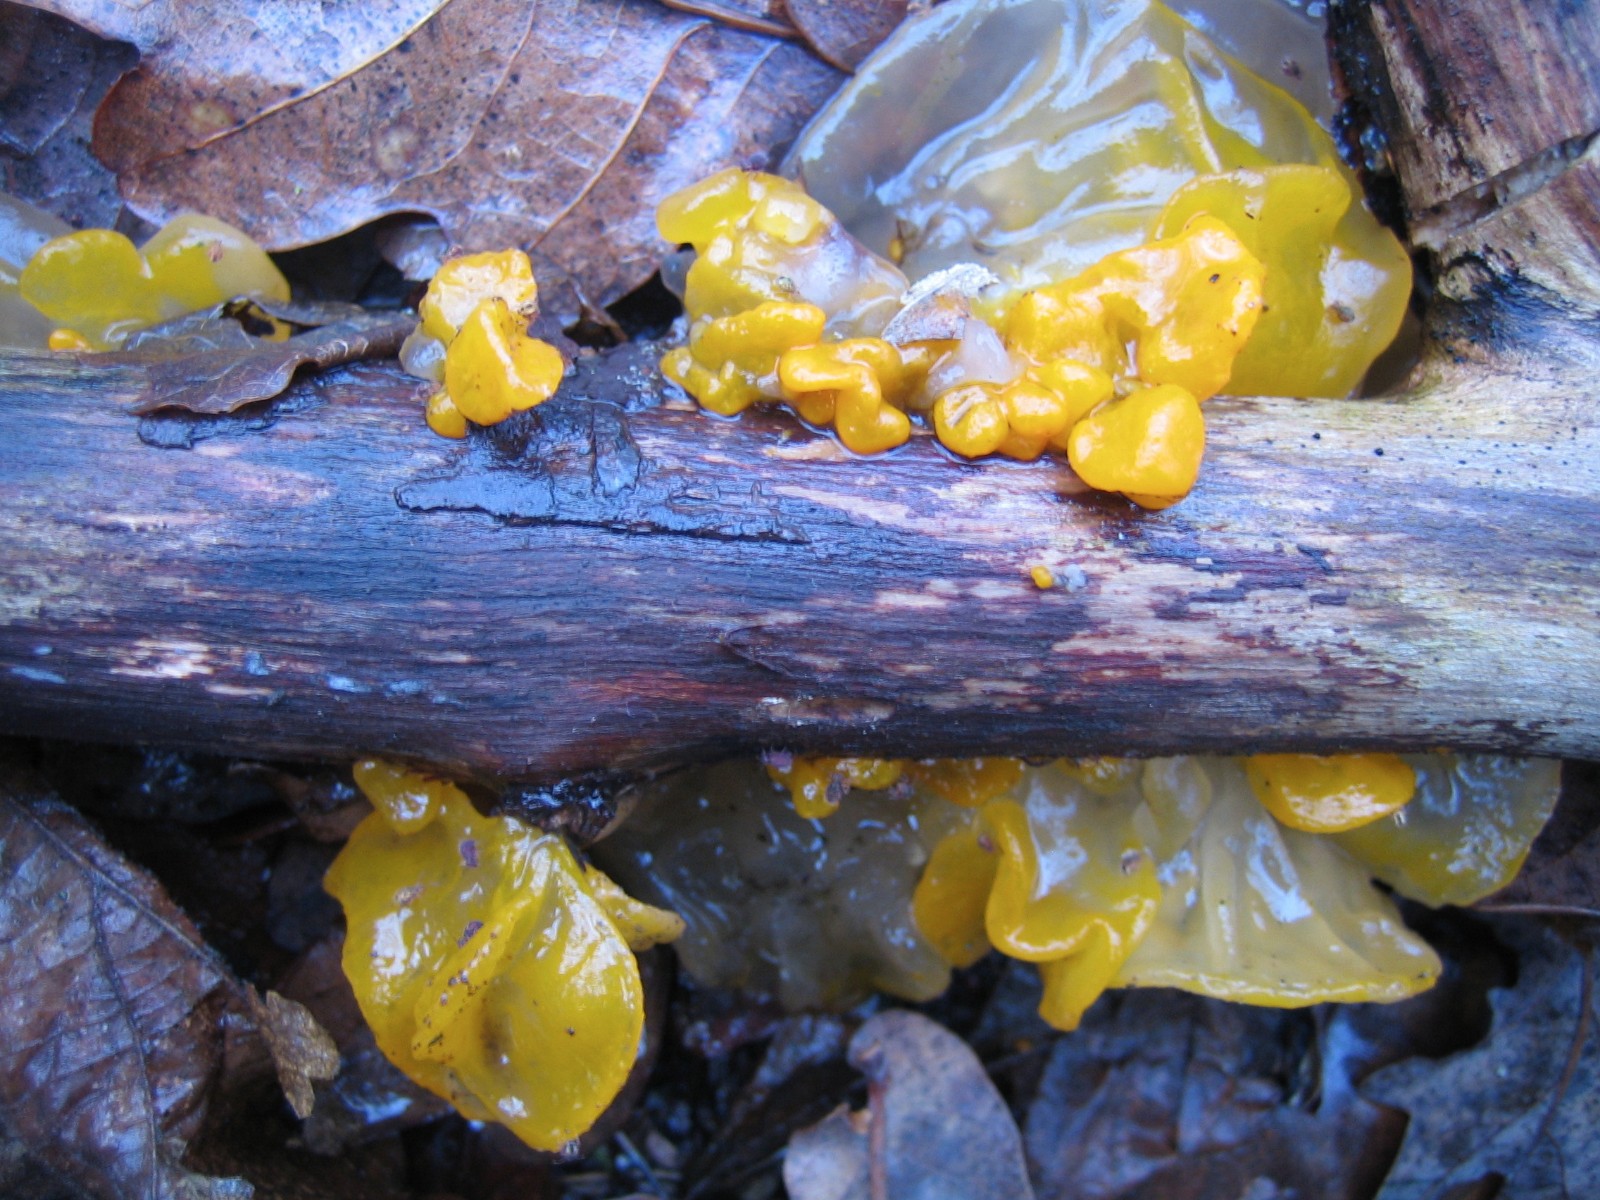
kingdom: Fungi
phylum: Basidiomycota
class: Tremellomycetes
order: Tremellales
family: Tremellaceae
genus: Tremella
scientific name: Tremella mesenterica
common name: gul bævresvamp
